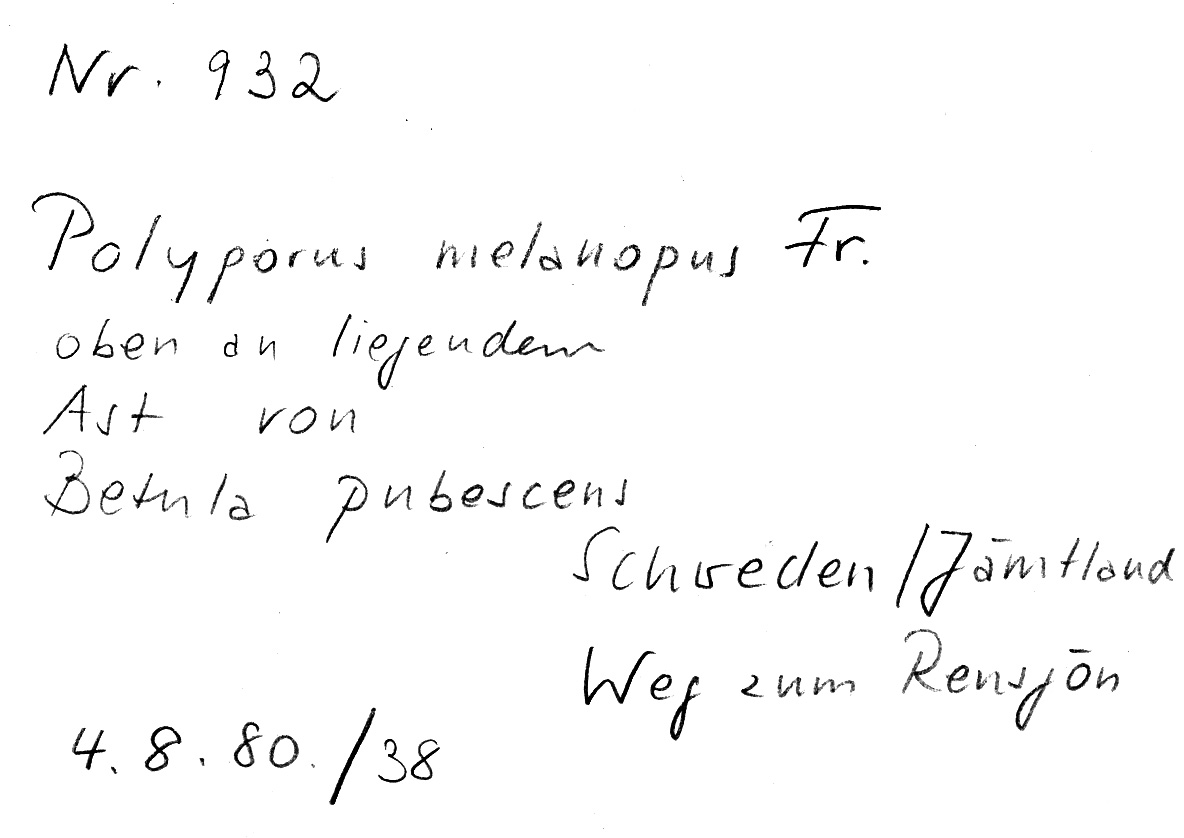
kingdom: Plantae
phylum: Tracheophyta
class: Magnoliopsida
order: Fagales
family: Betulaceae
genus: Betula
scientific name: Betula pubescens
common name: Downy birch
